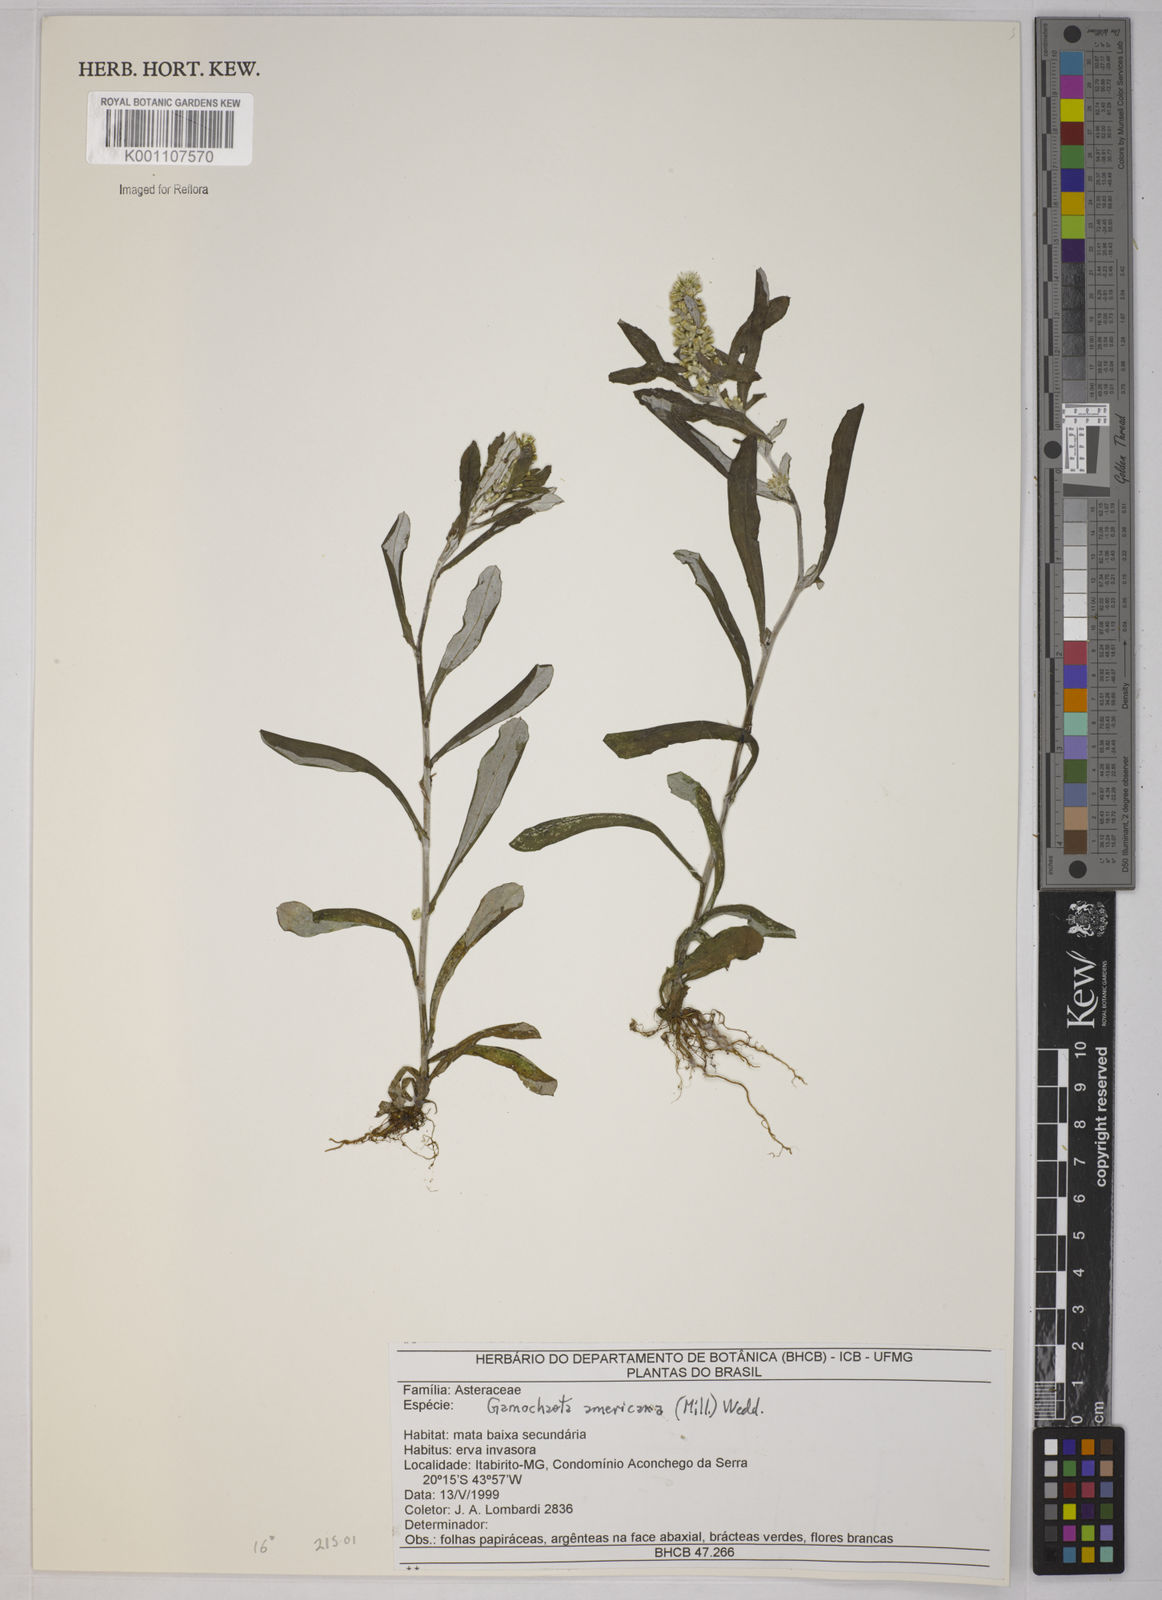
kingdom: Plantae
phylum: Tracheophyta
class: Magnoliopsida
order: Asterales
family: Asteraceae
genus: Gamochaeta
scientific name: Gamochaeta americana
